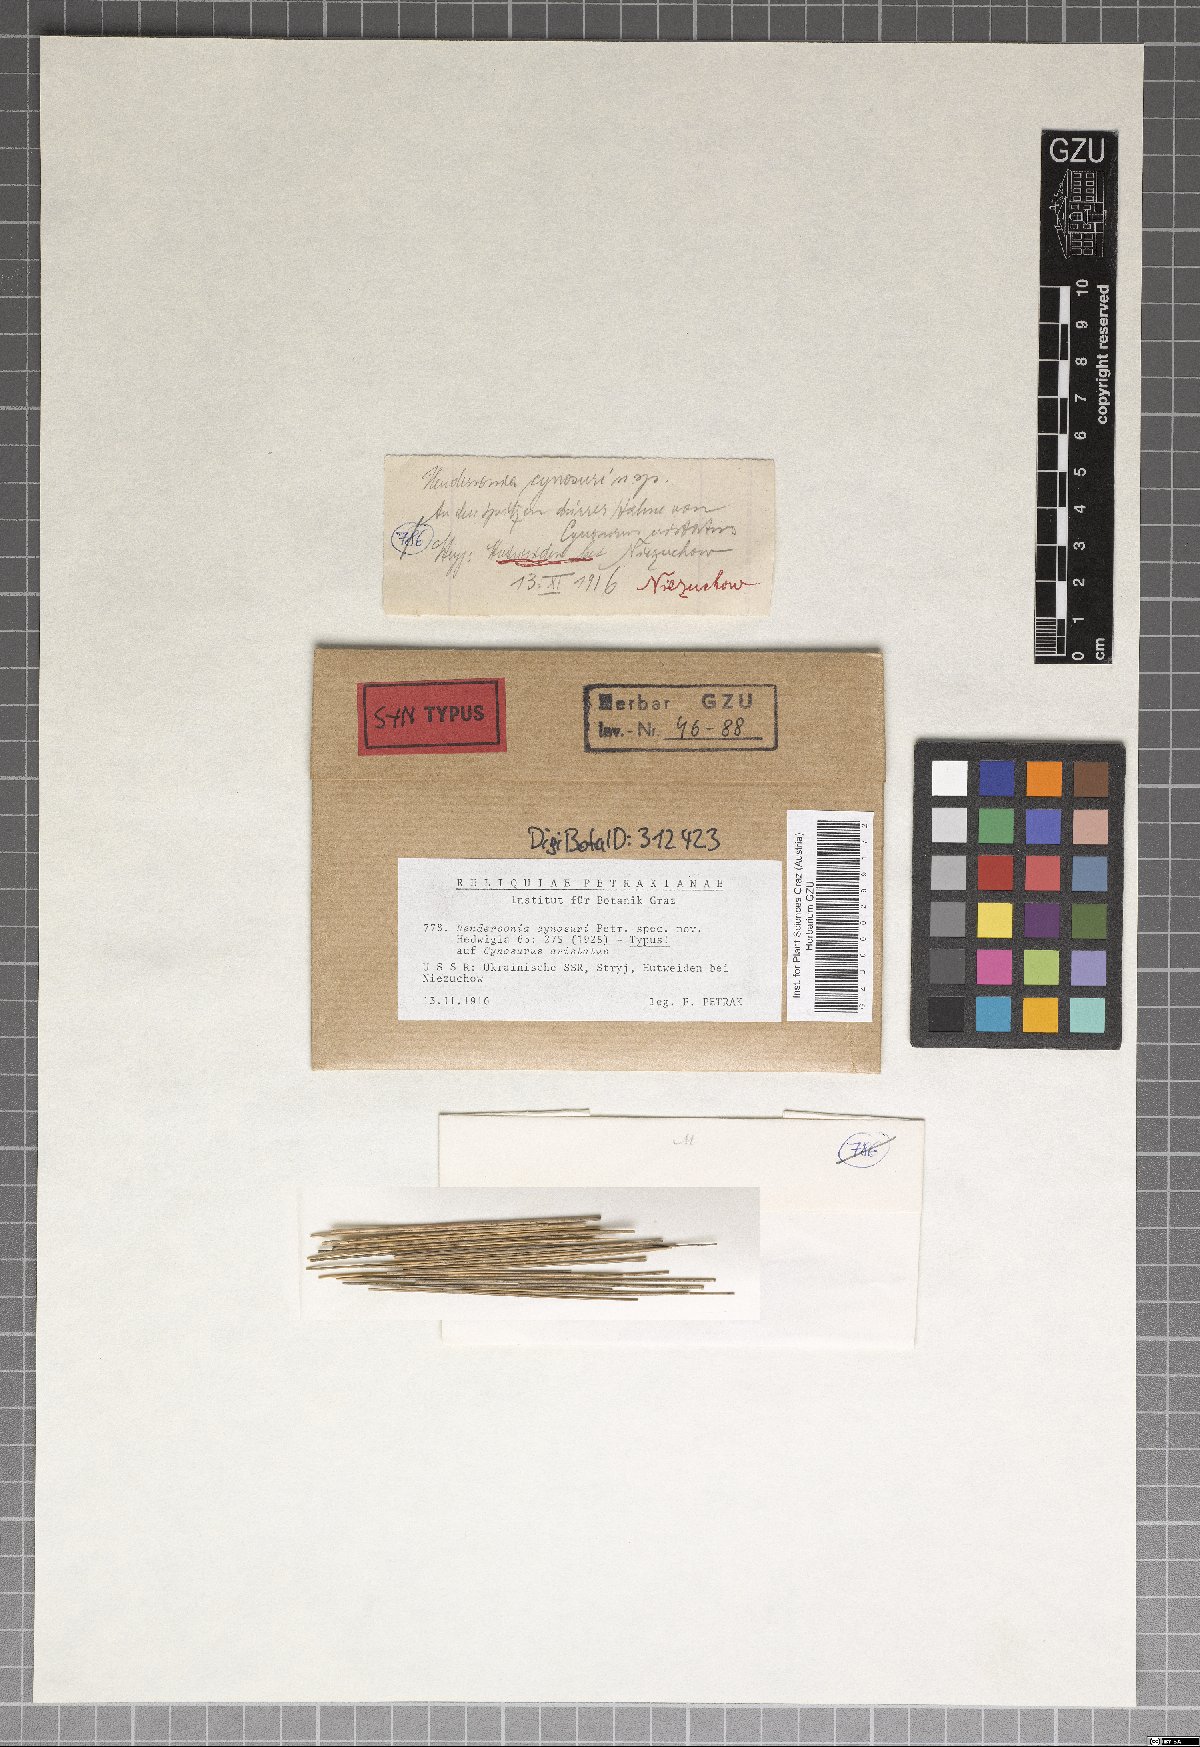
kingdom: Fungi
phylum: Ascomycota
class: Dothideomycetes
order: Pleosporales
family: Phaeosphaeriaceae
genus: Hendersonia
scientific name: Hendersonia cynosuri
